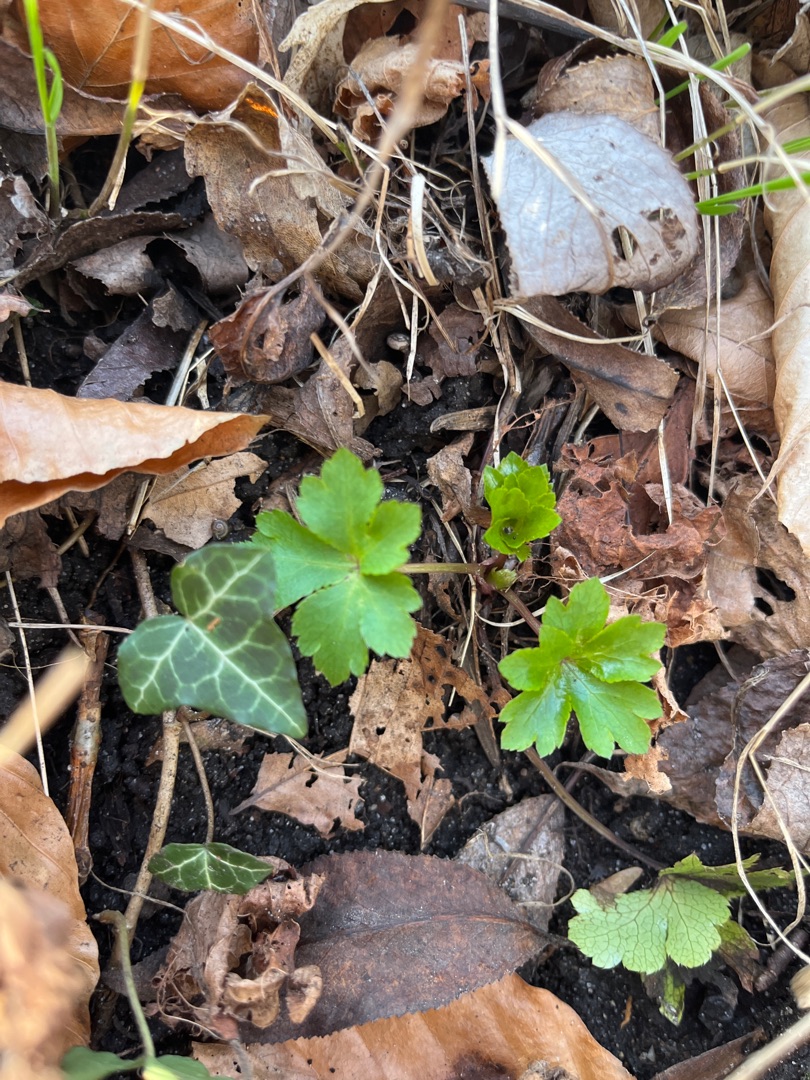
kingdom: Plantae
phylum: Tracheophyta
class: Magnoliopsida
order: Apiales
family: Apiaceae
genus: Sanicula
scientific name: Sanicula europaea
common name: Sanikel
